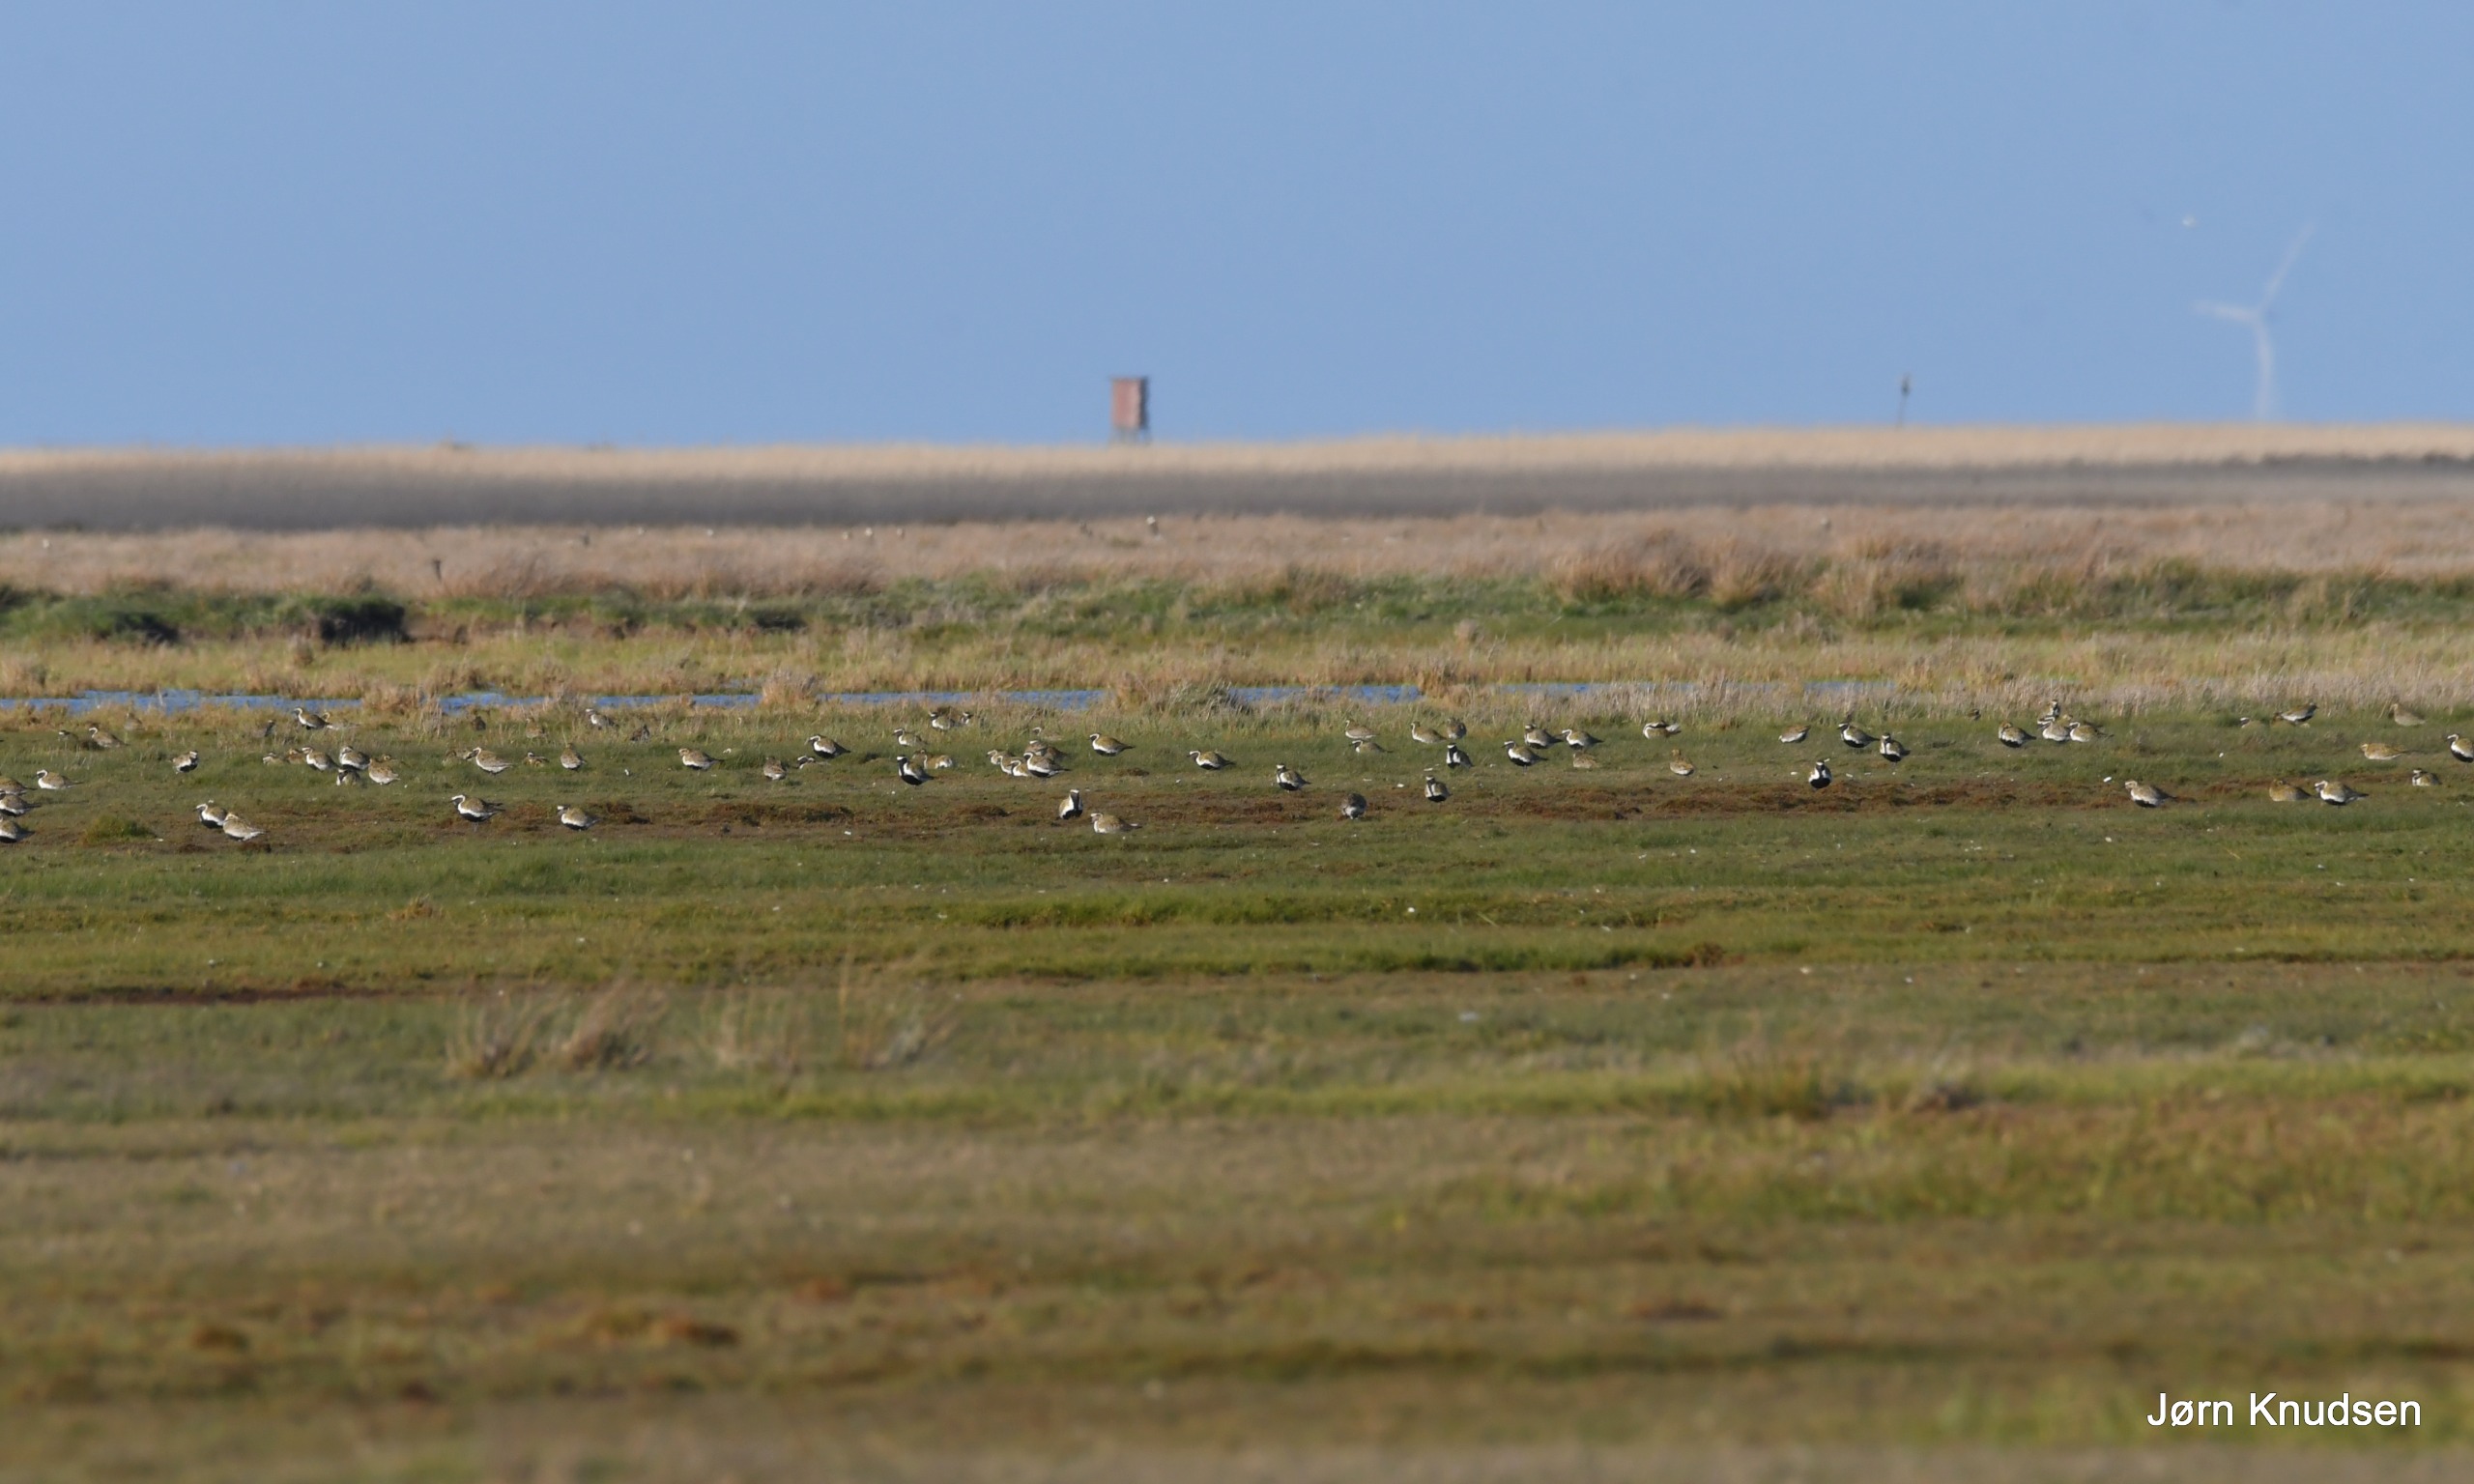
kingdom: Animalia
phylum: Chordata
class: Aves
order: Charadriiformes
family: Charadriidae
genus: Pluvialis
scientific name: Pluvialis apricaria
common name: Hjejle
